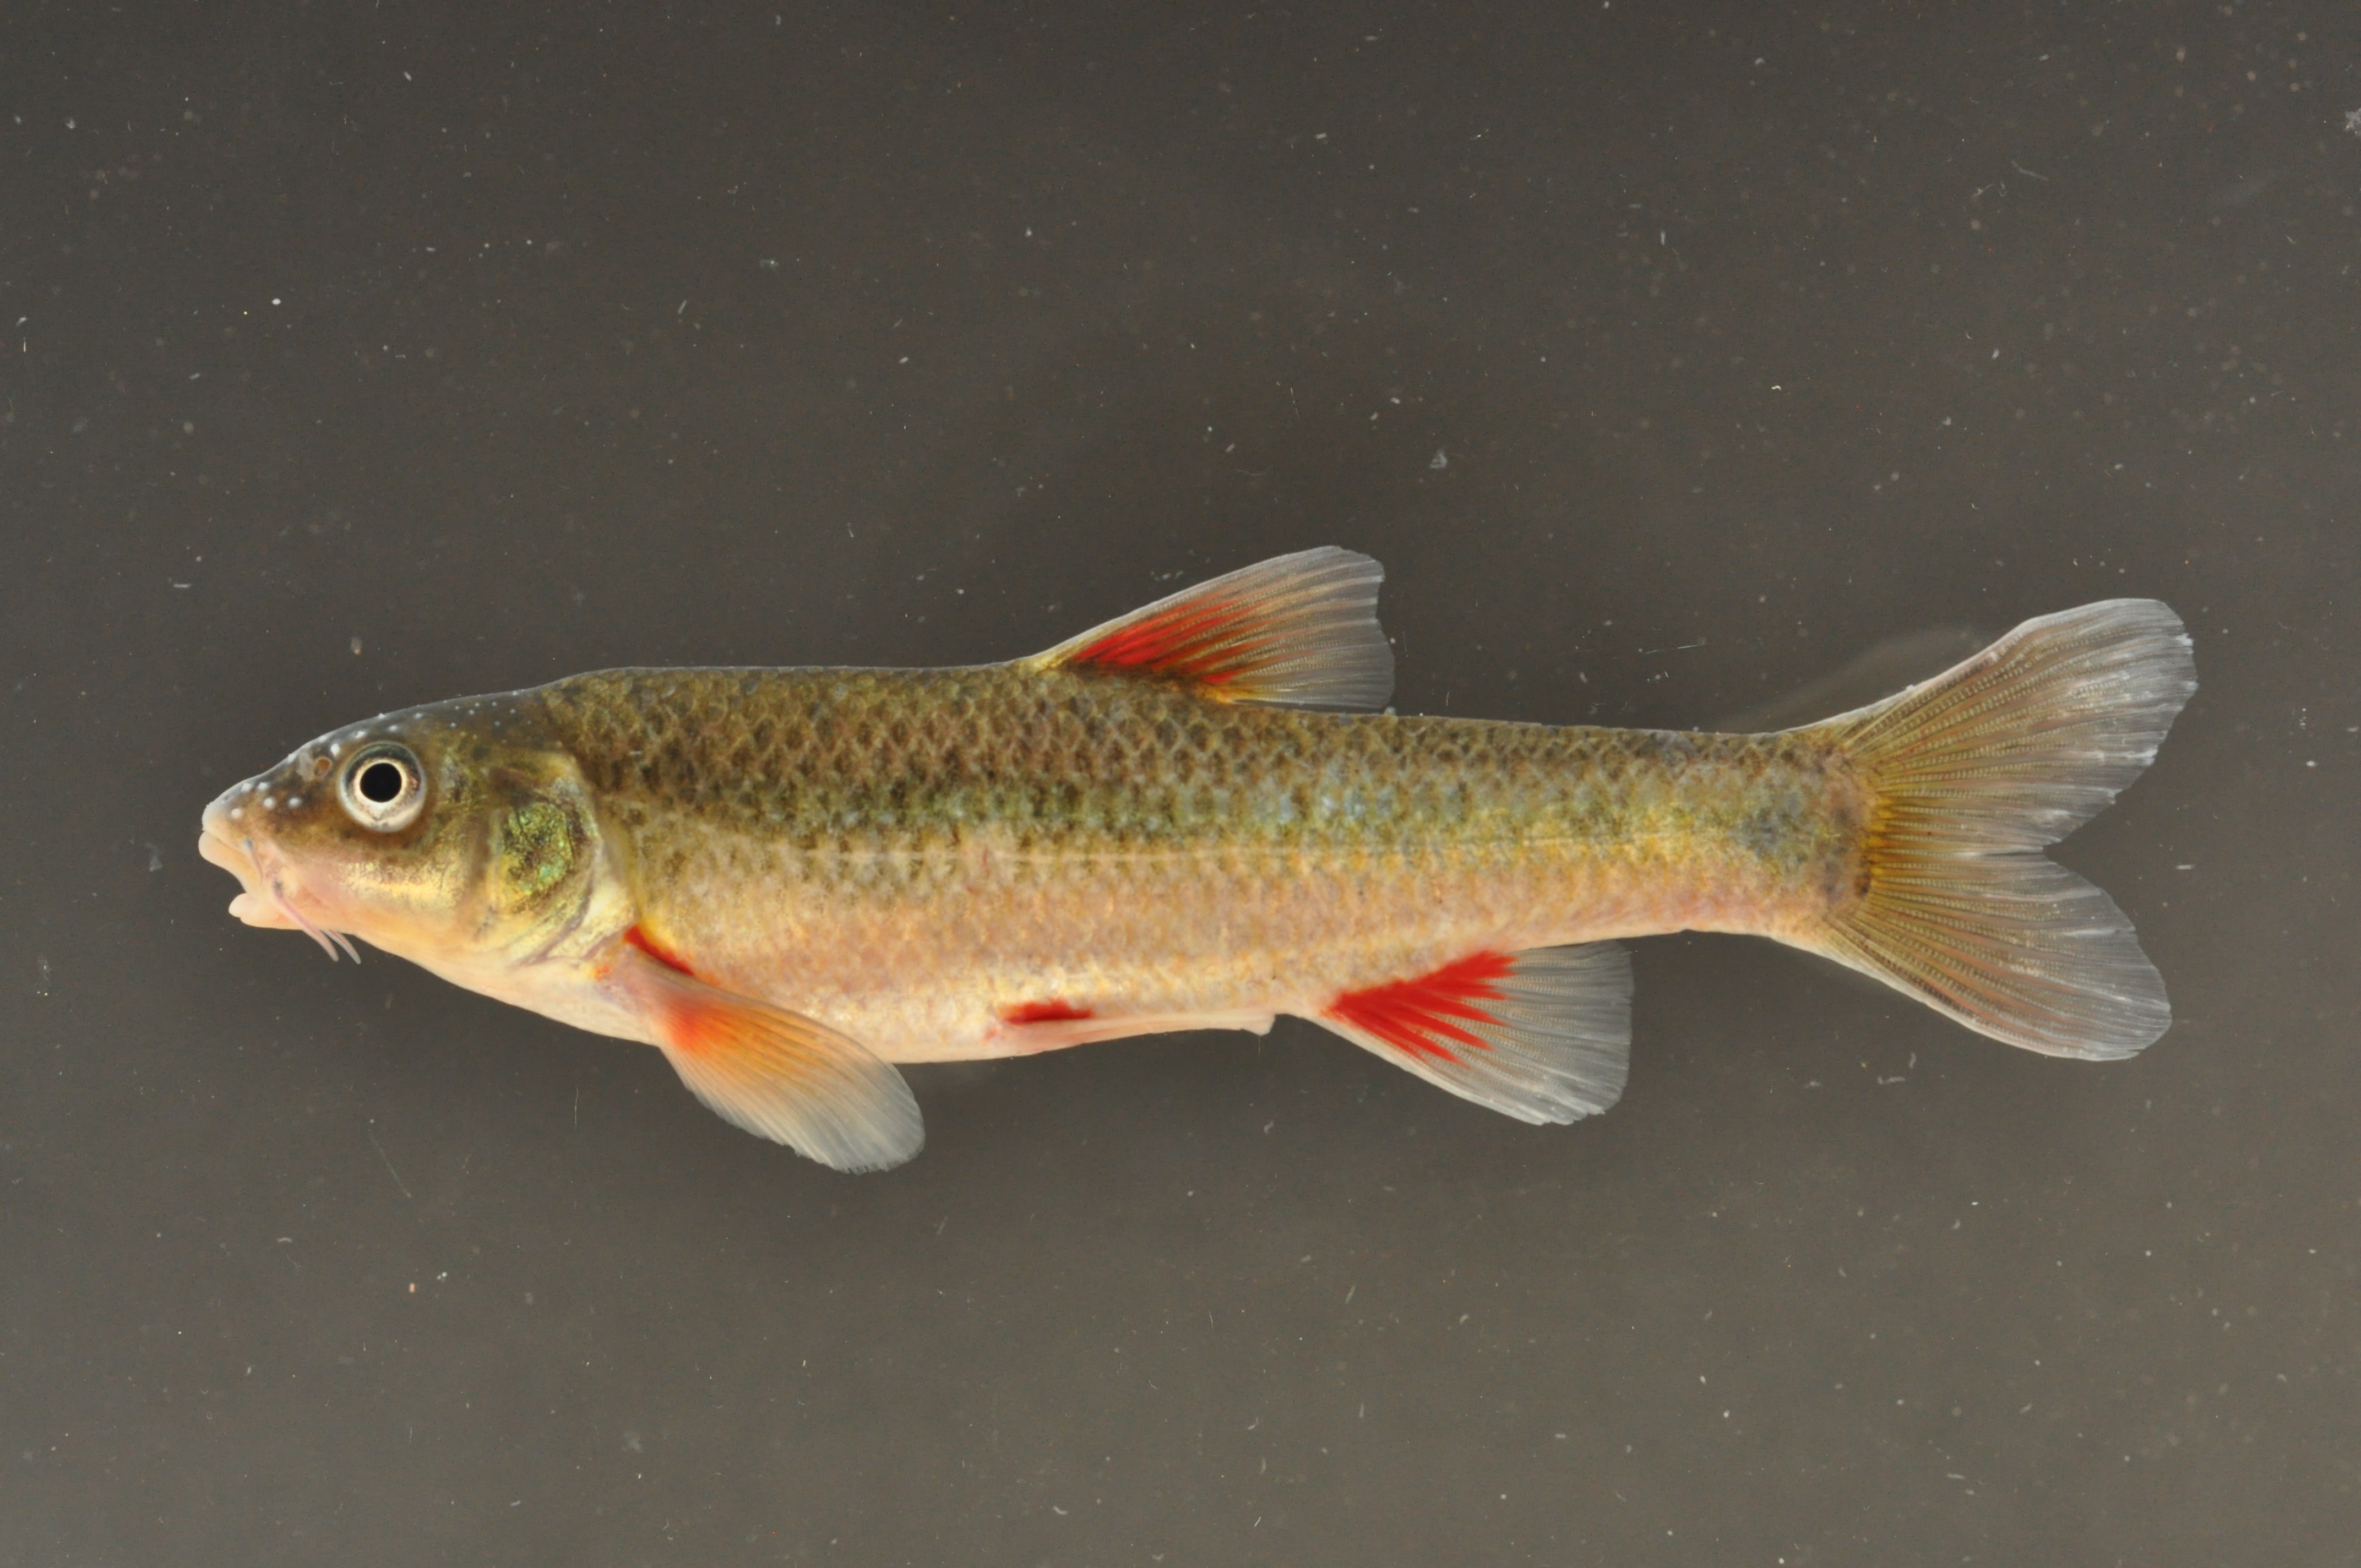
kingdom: Animalia
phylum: Chordata
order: Cypriniformes
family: Cyprinidae
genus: Pseudobarbus
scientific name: Pseudobarbus burchelli
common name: Burchell's redfin
